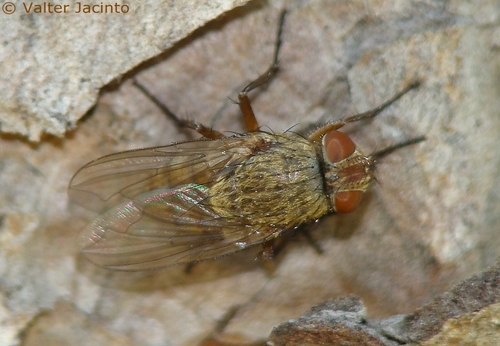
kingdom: Animalia
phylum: Arthropoda
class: Insecta
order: Diptera
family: Polleniidae
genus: Pollenia
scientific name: Pollenia bicolor
